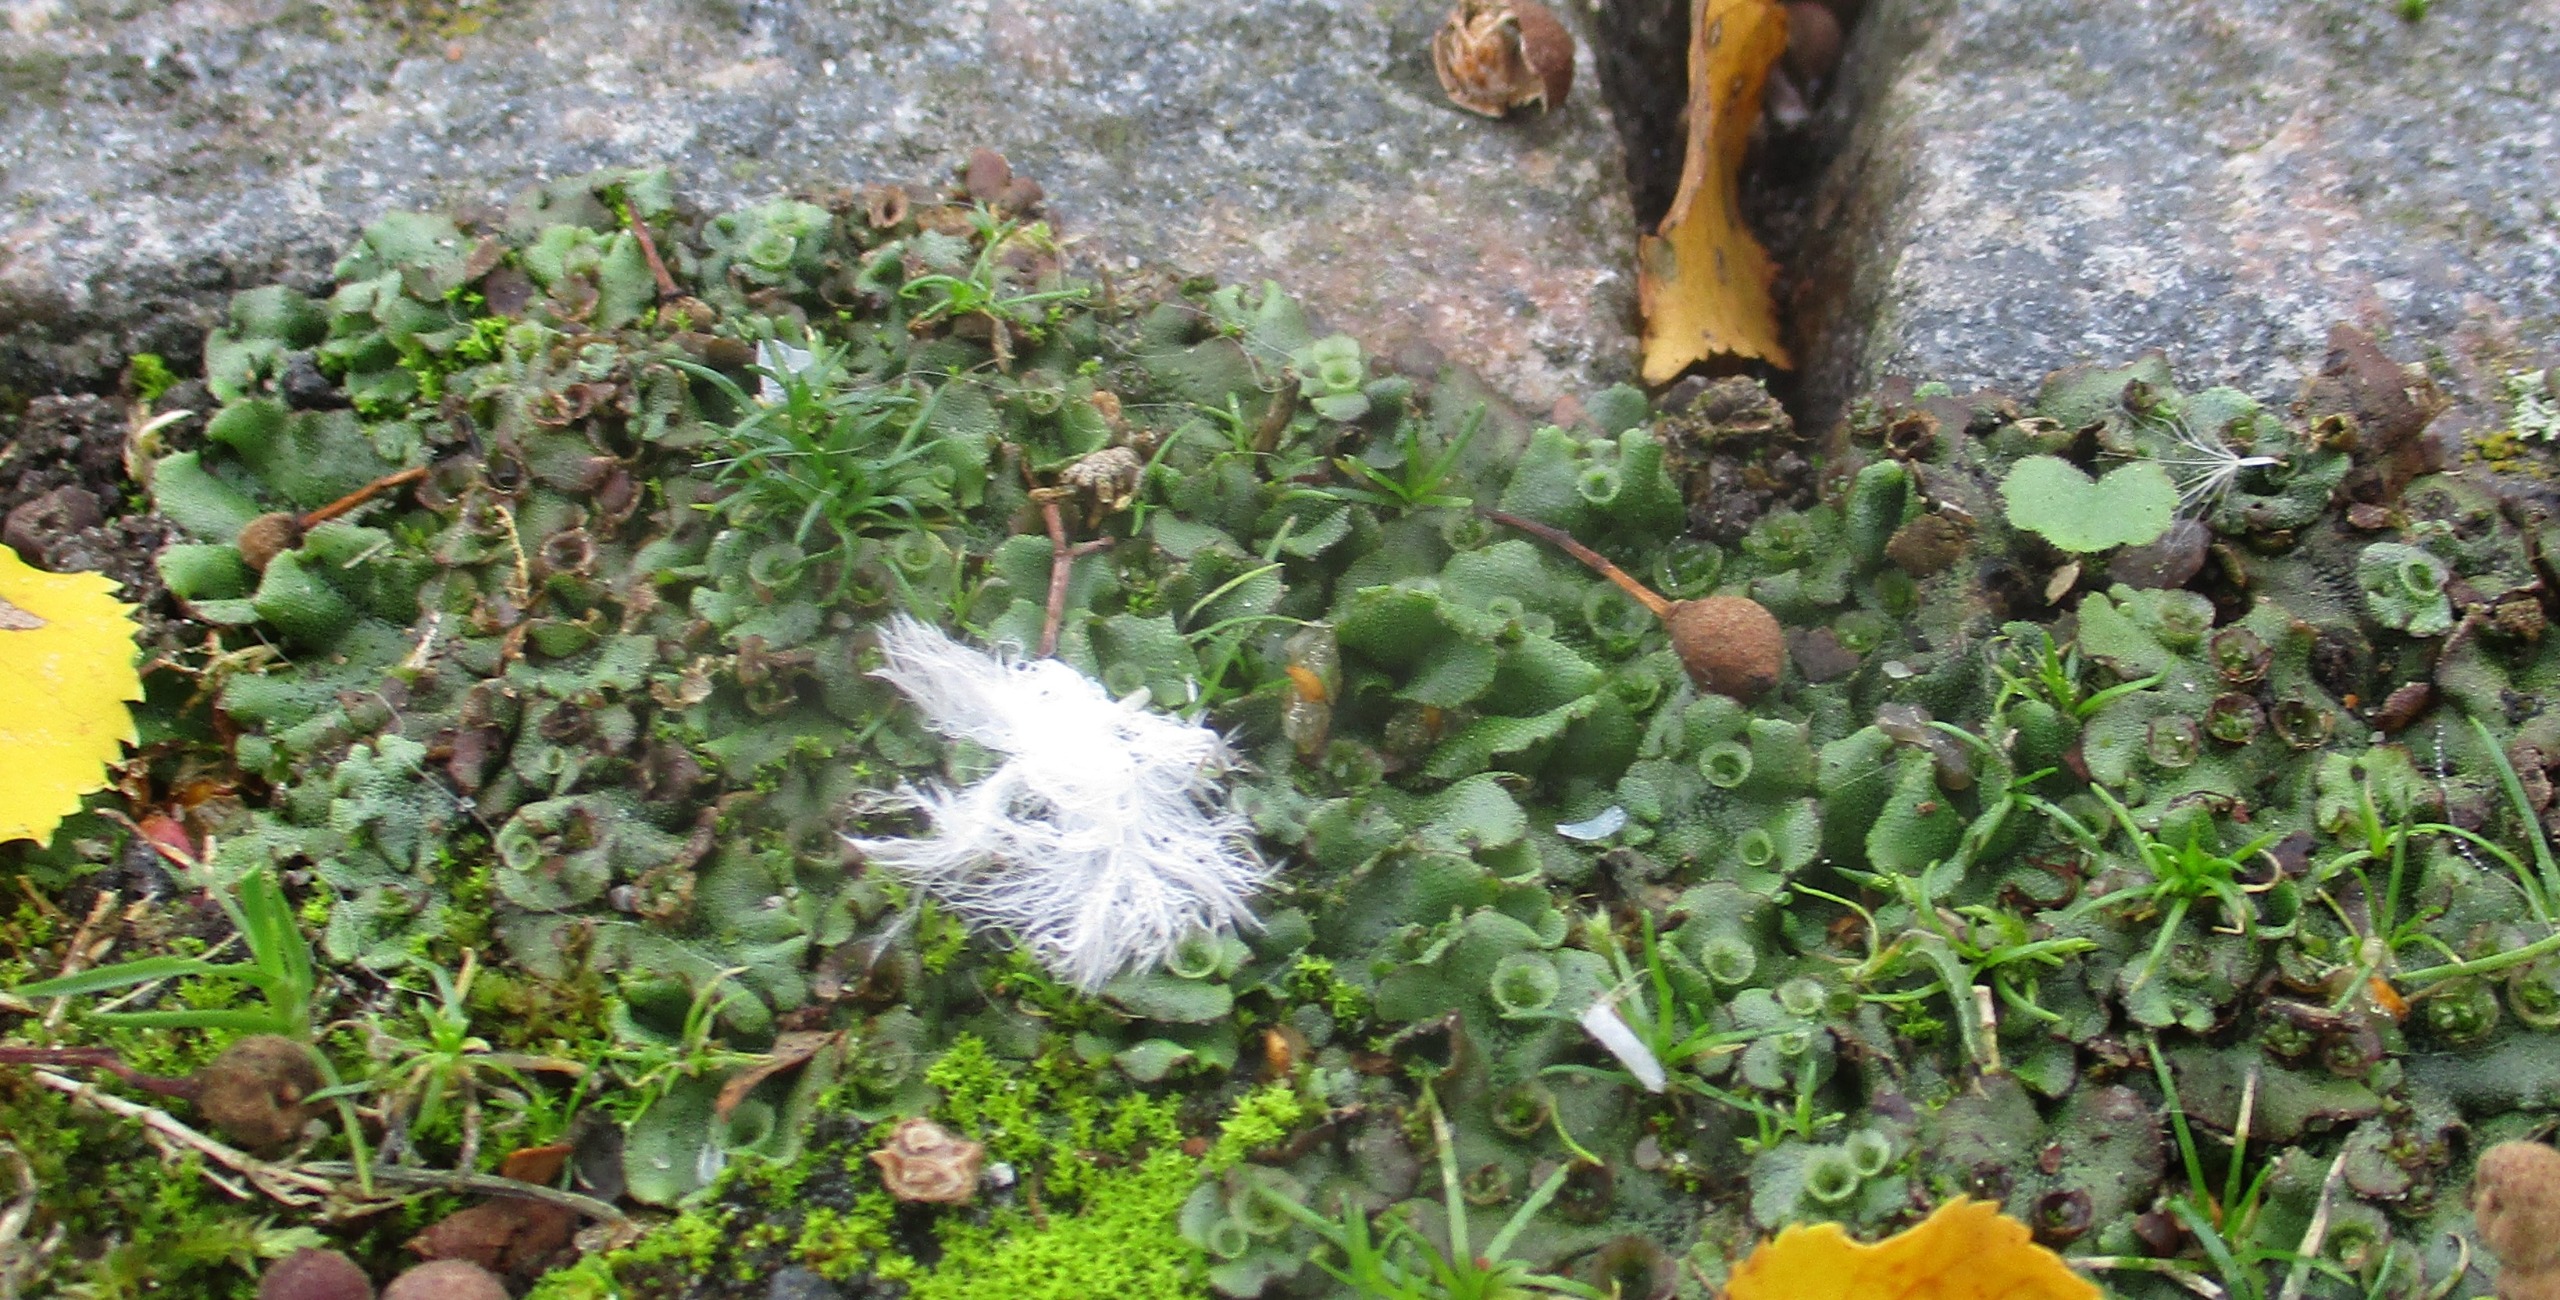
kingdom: Plantae
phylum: Marchantiophyta
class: Marchantiopsida
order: Marchantiales
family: Marchantiaceae
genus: Marchantia
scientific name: Marchantia polymorpha
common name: Almindelig lungemos (underart)
